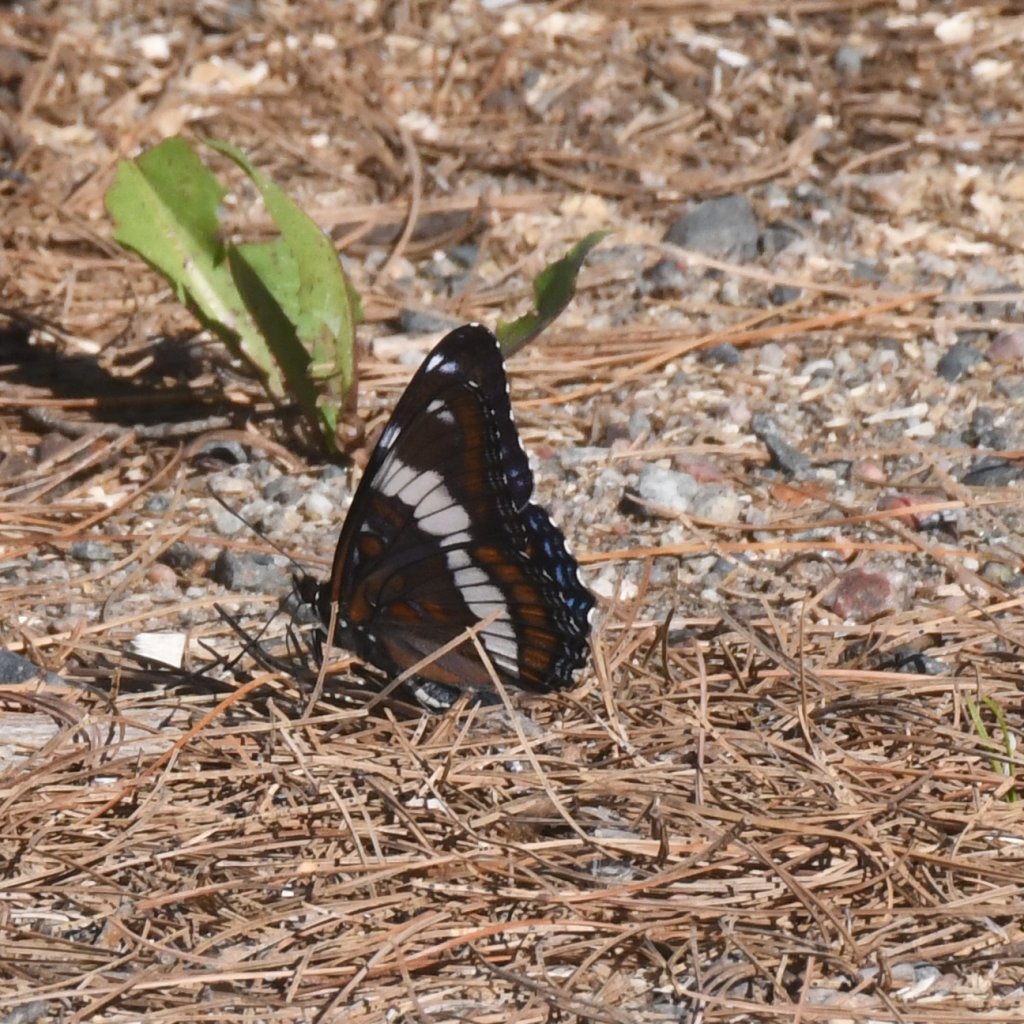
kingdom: Animalia
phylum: Arthropoda
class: Insecta
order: Lepidoptera
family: Nymphalidae
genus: Limenitis
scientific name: Limenitis arthemis
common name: Red-spotted Admiral
